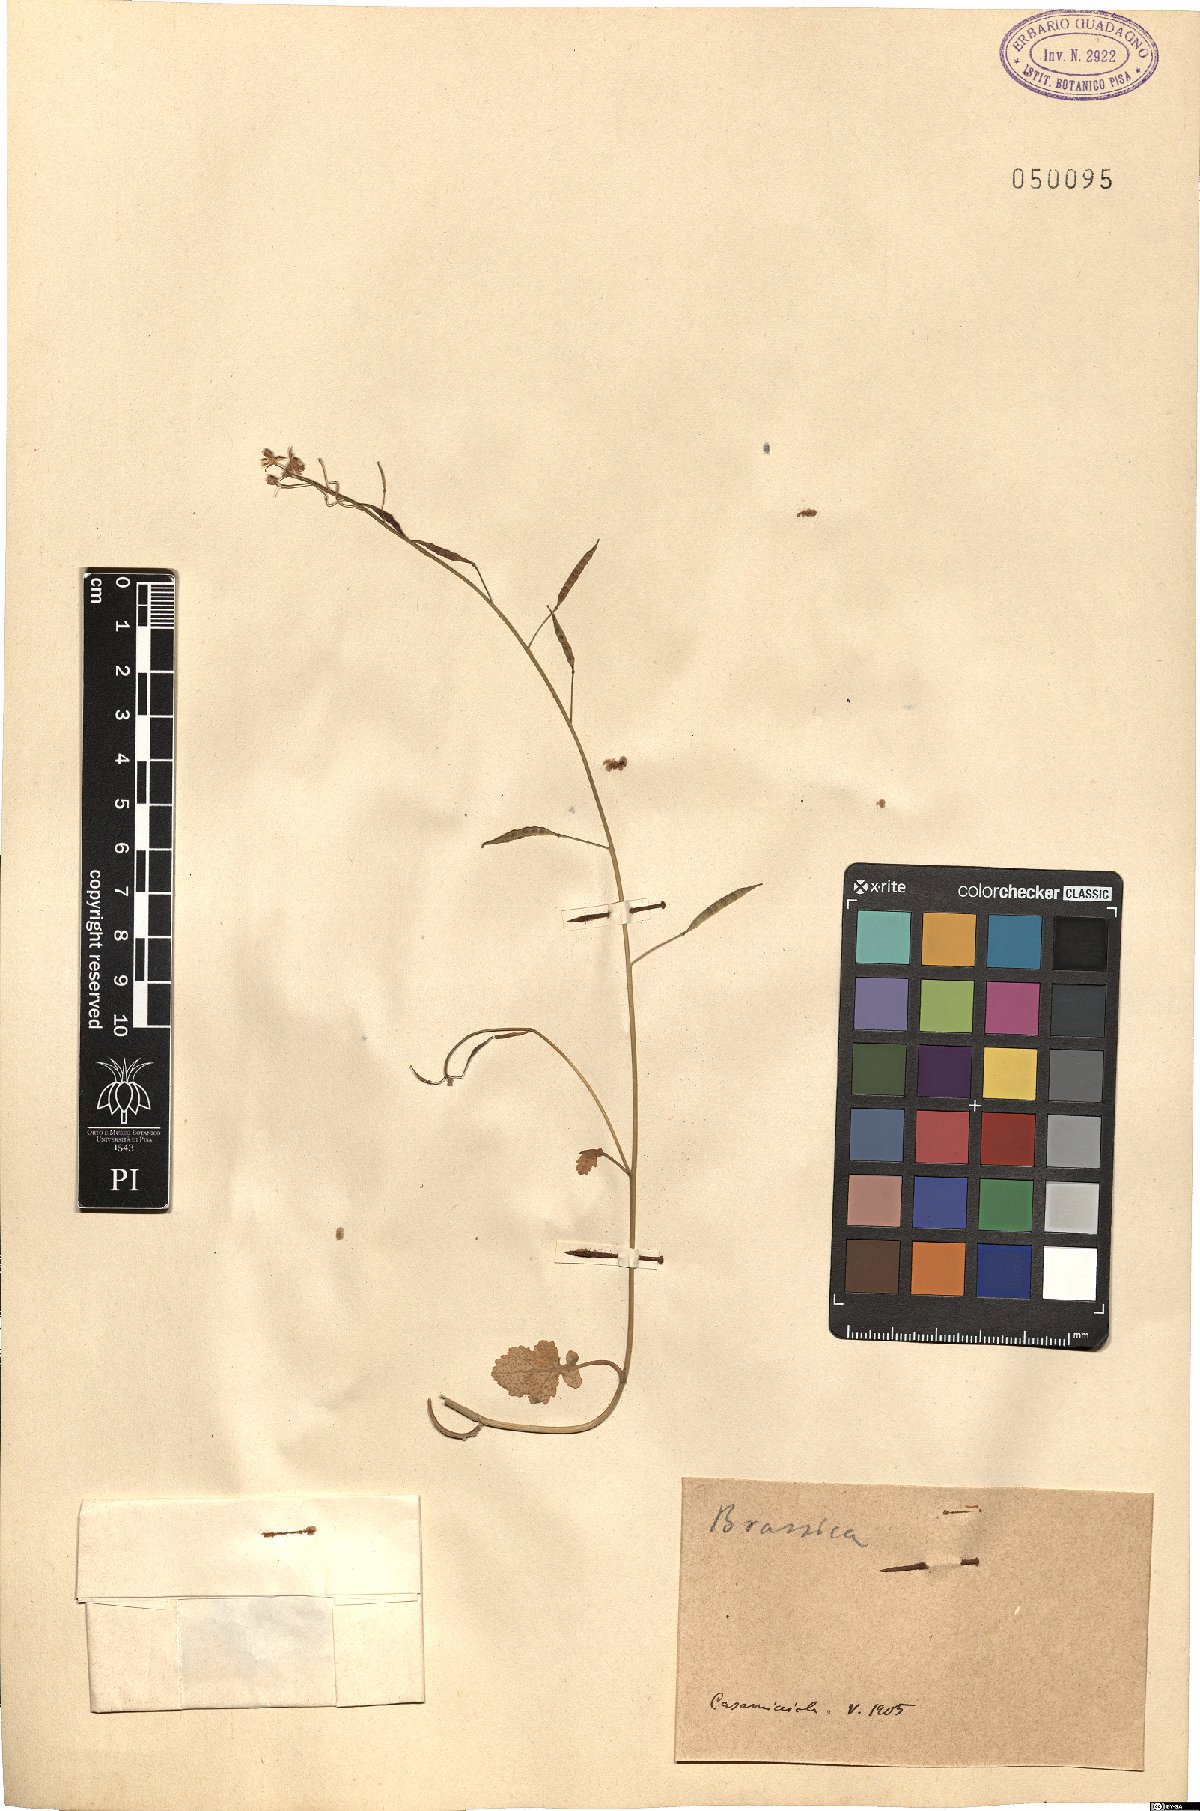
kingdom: Plantae
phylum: Tracheophyta
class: Magnoliopsida
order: Brassicales
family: Brassicaceae
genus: Brassica
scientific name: Brassica
